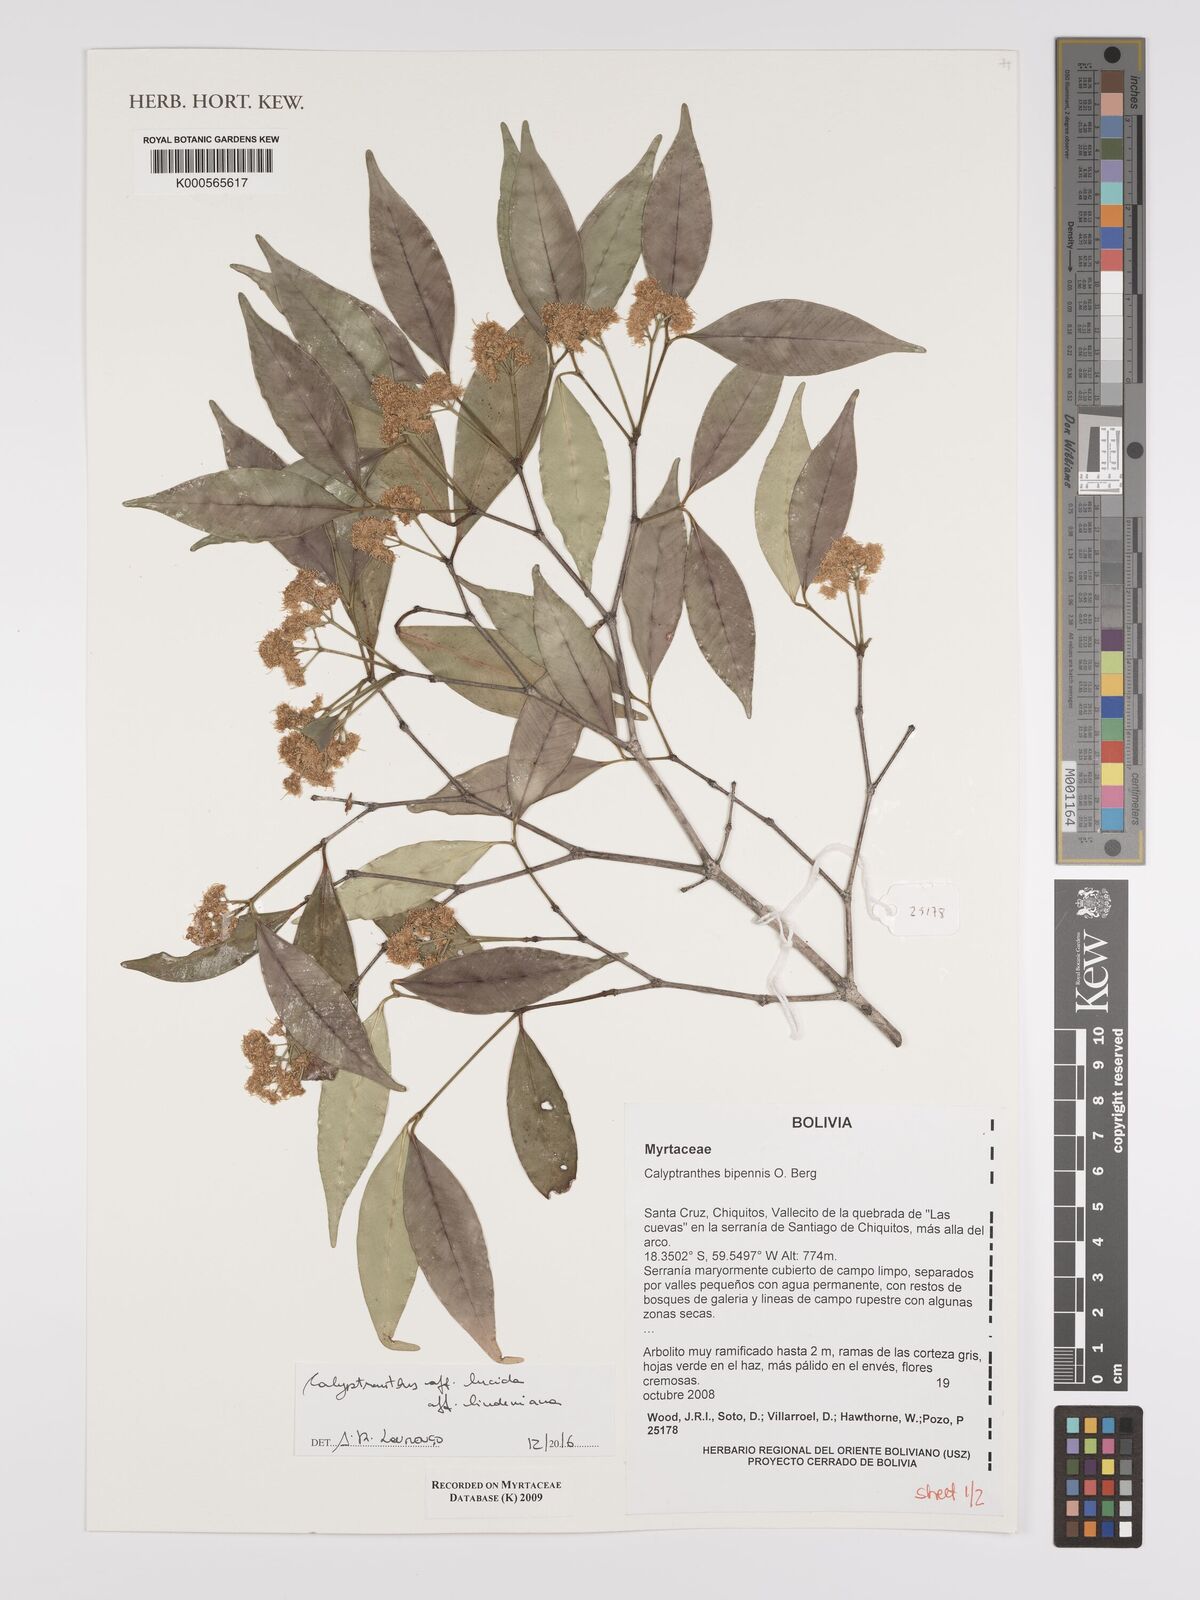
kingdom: Plantae
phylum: Tracheophyta
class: Magnoliopsida
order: Myrtales
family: Myrtaceae
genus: Myrcia
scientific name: Myrcia neolucida
